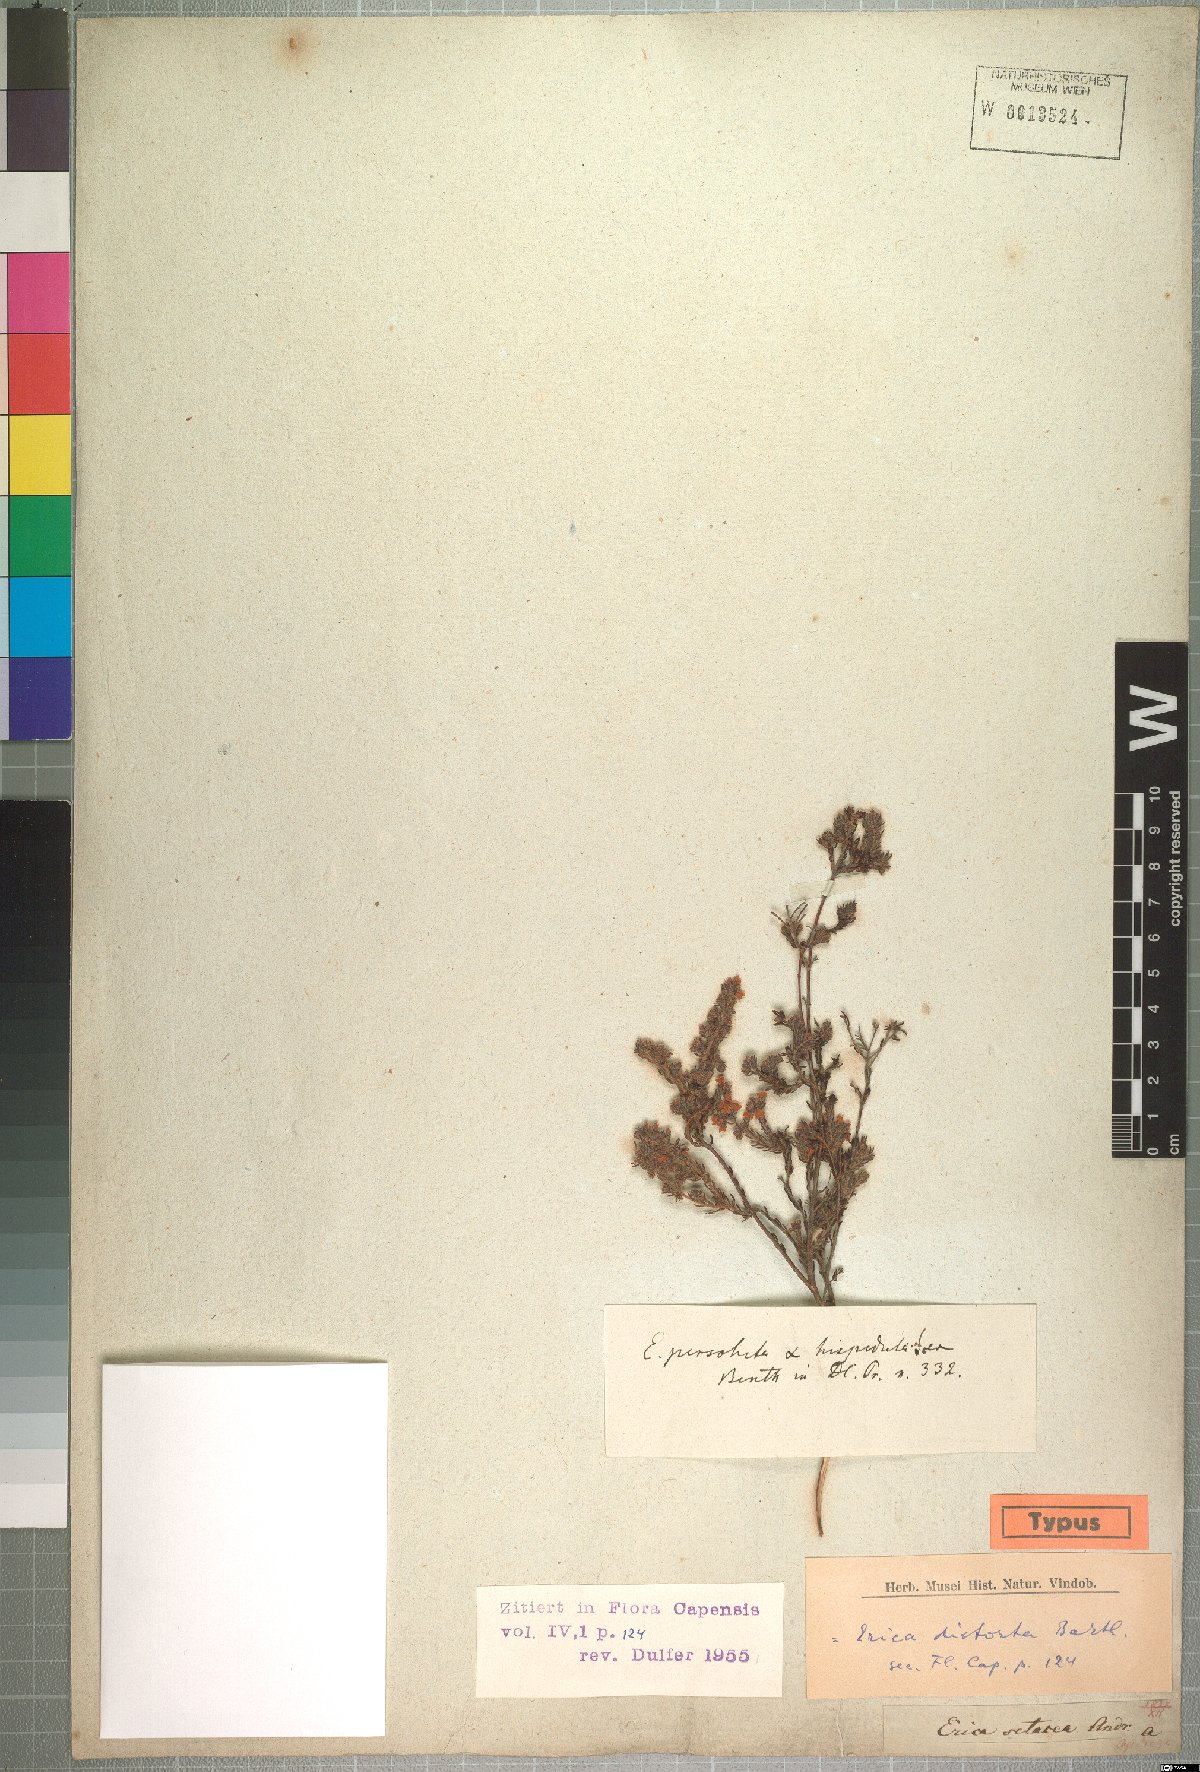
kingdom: Plantae
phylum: Tracheophyta
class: Magnoliopsida
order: Ericales
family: Ericaceae
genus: Erica
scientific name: Erica
